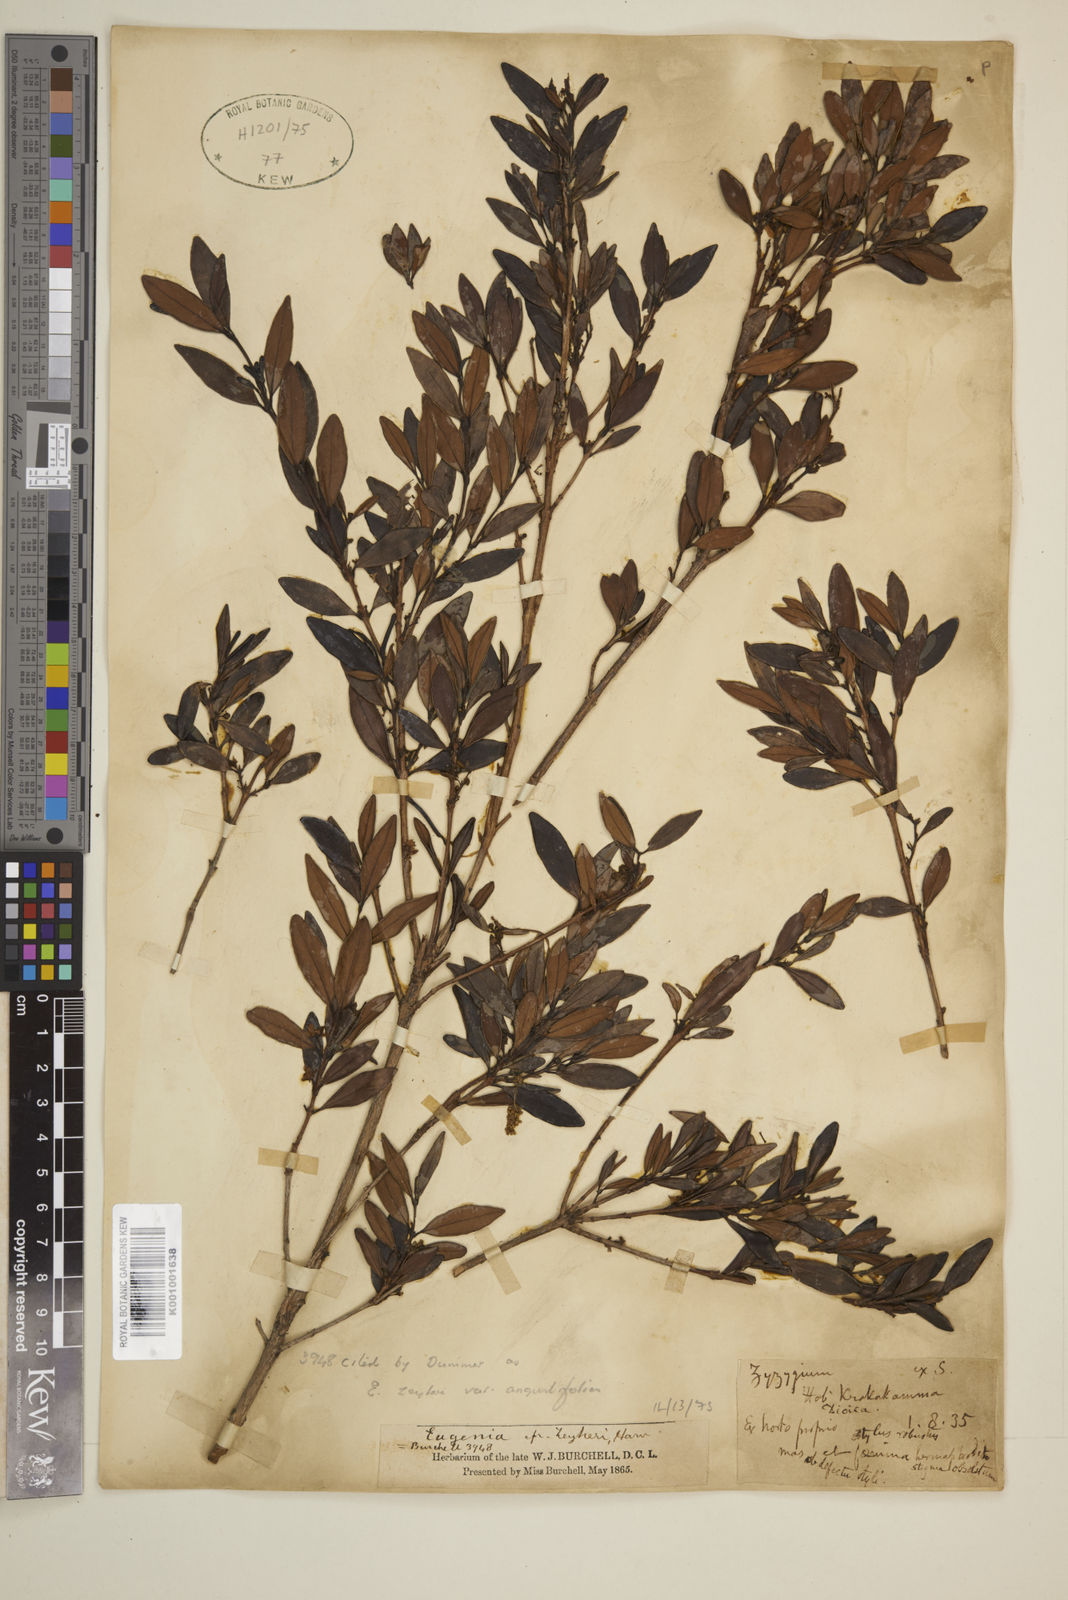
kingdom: Plantae
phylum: Tracheophyta
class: Magnoliopsida
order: Myrtales
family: Myrtaceae
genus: Eugenia
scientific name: Eugenia zeyheri
